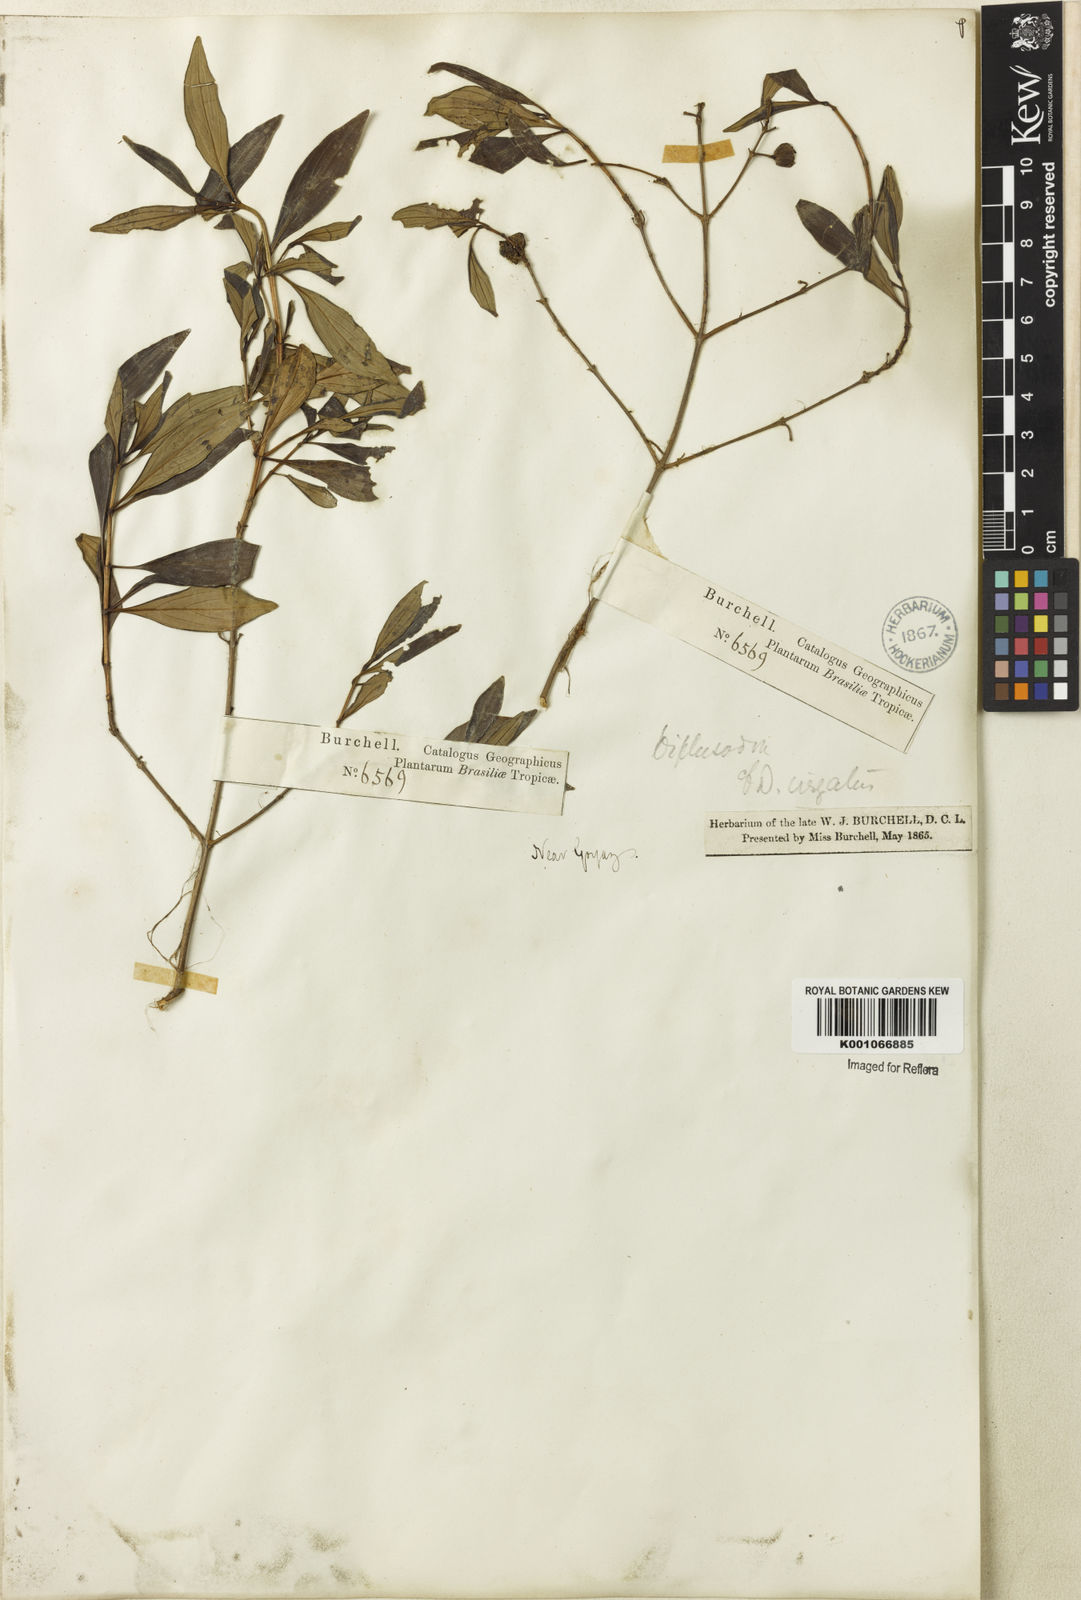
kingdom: Plantae
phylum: Tracheophyta
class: Magnoliopsida
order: Myrtales
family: Lythraceae
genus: Diplusodon
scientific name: Diplusodon virgatus
